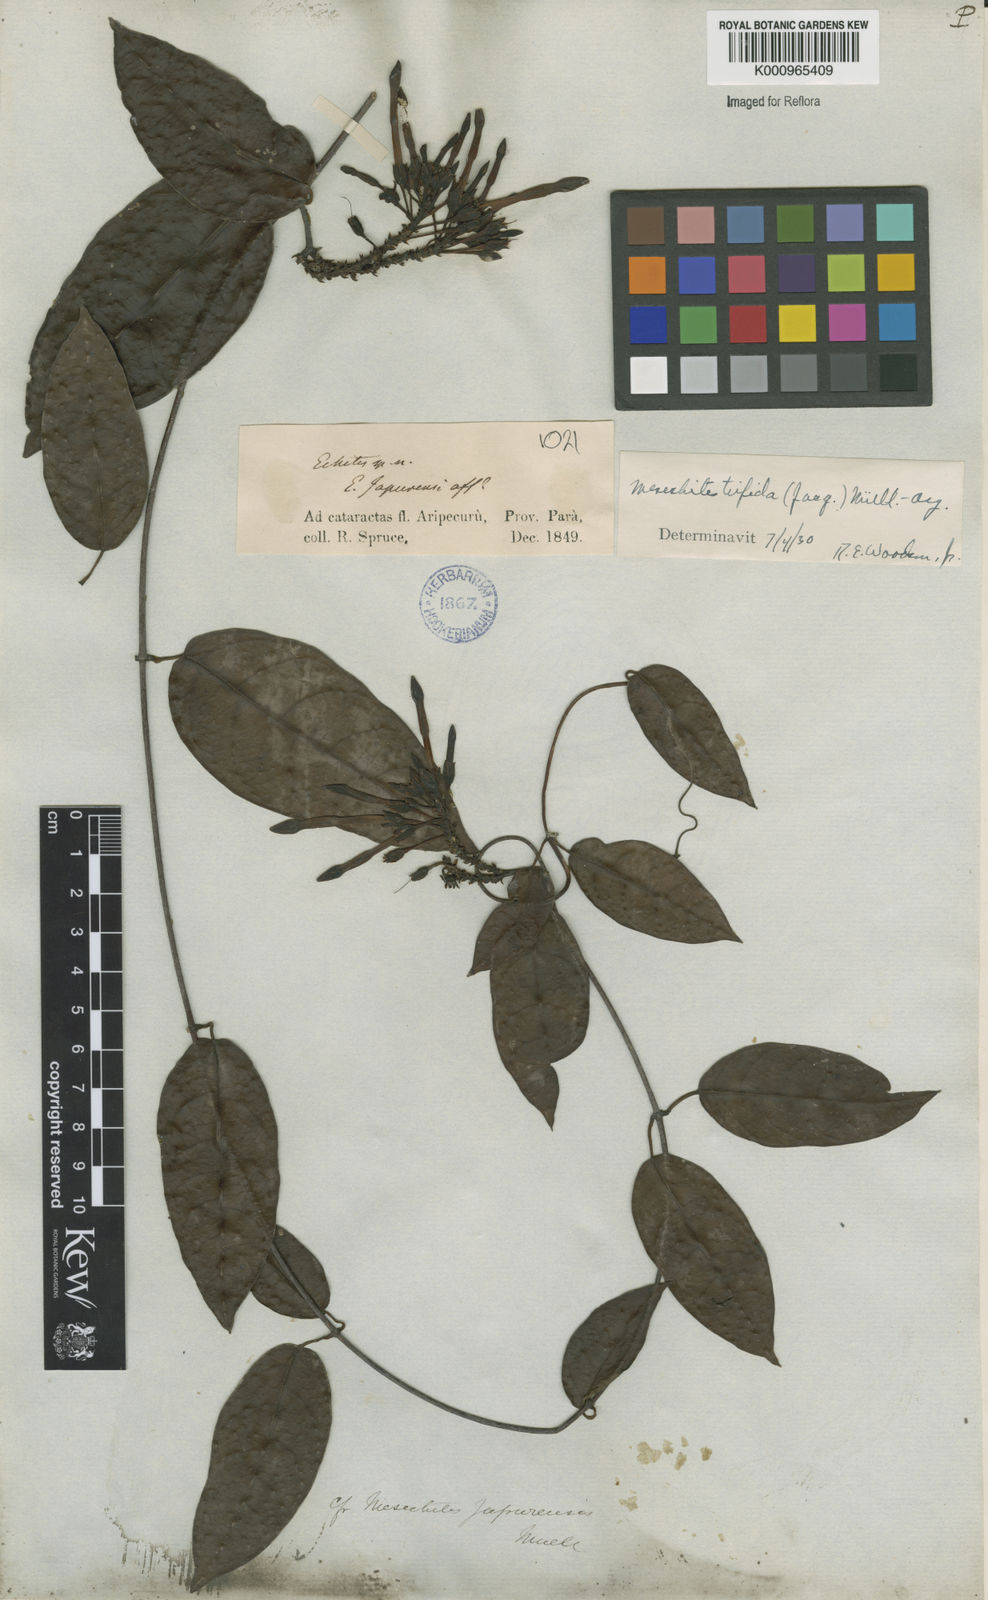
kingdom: Plantae
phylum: Tracheophyta
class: Magnoliopsida
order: Gentianales
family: Apocynaceae
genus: Mesechites
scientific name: Mesechites
